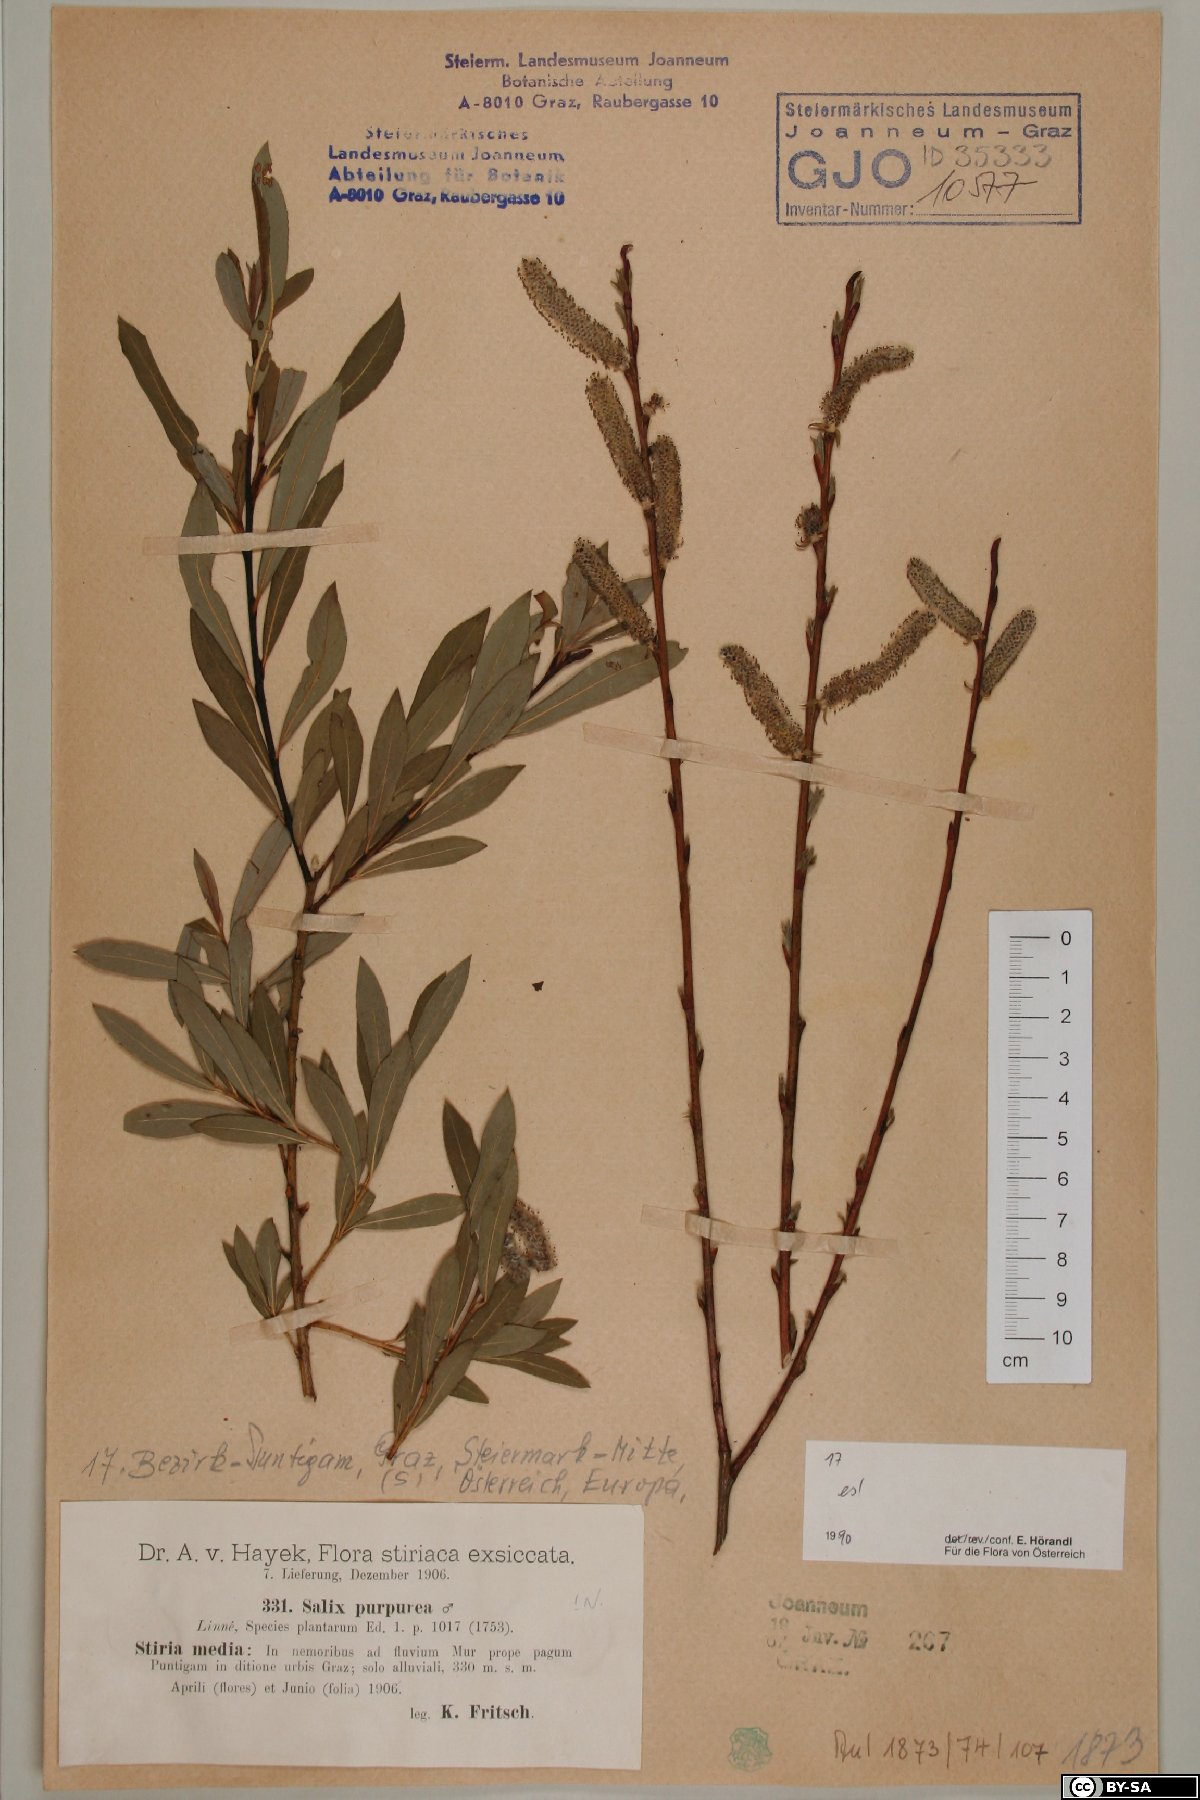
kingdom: Plantae
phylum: Tracheophyta
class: Magnoliopsida
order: Malpighiales
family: Salicaceae
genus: Salix
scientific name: Salix purpurea
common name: Purple willow
